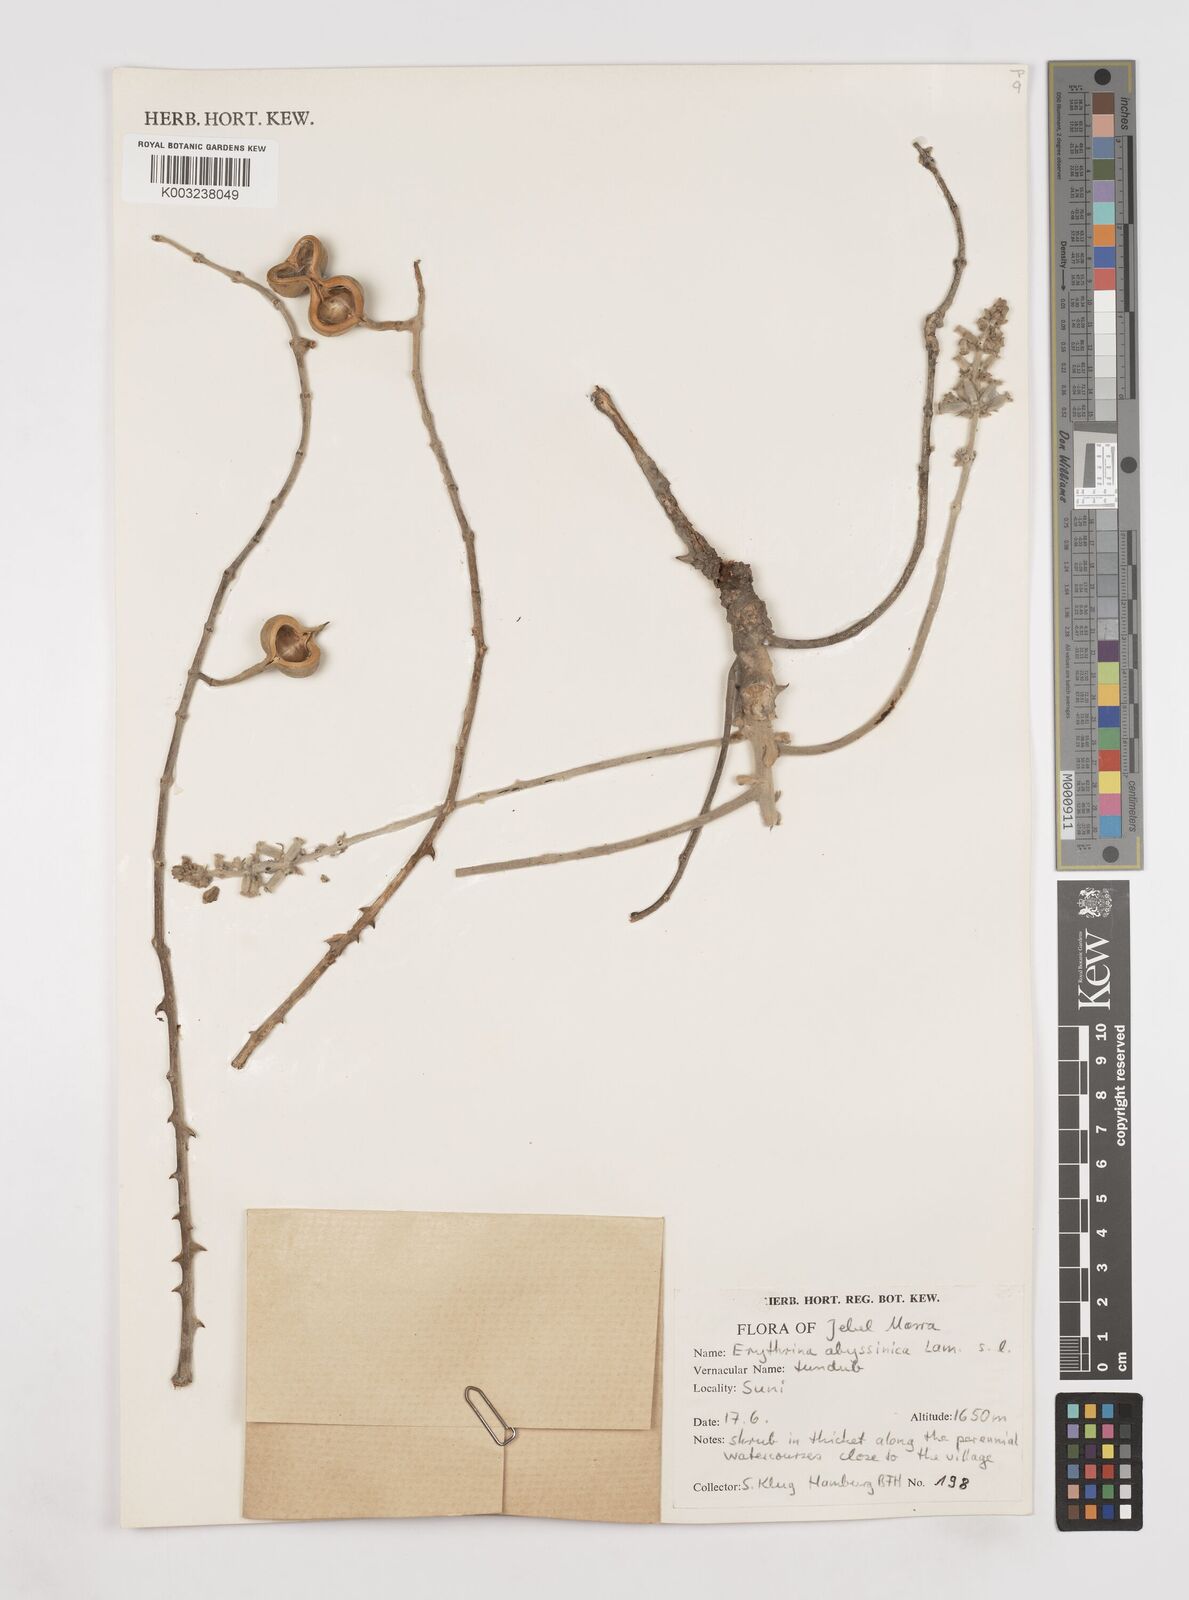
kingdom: Plantae
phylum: Tracheophyta
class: Magnoliopsida
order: Fabales
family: Fabaceae
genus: Erythrina
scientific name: Erythrina abyssinica
